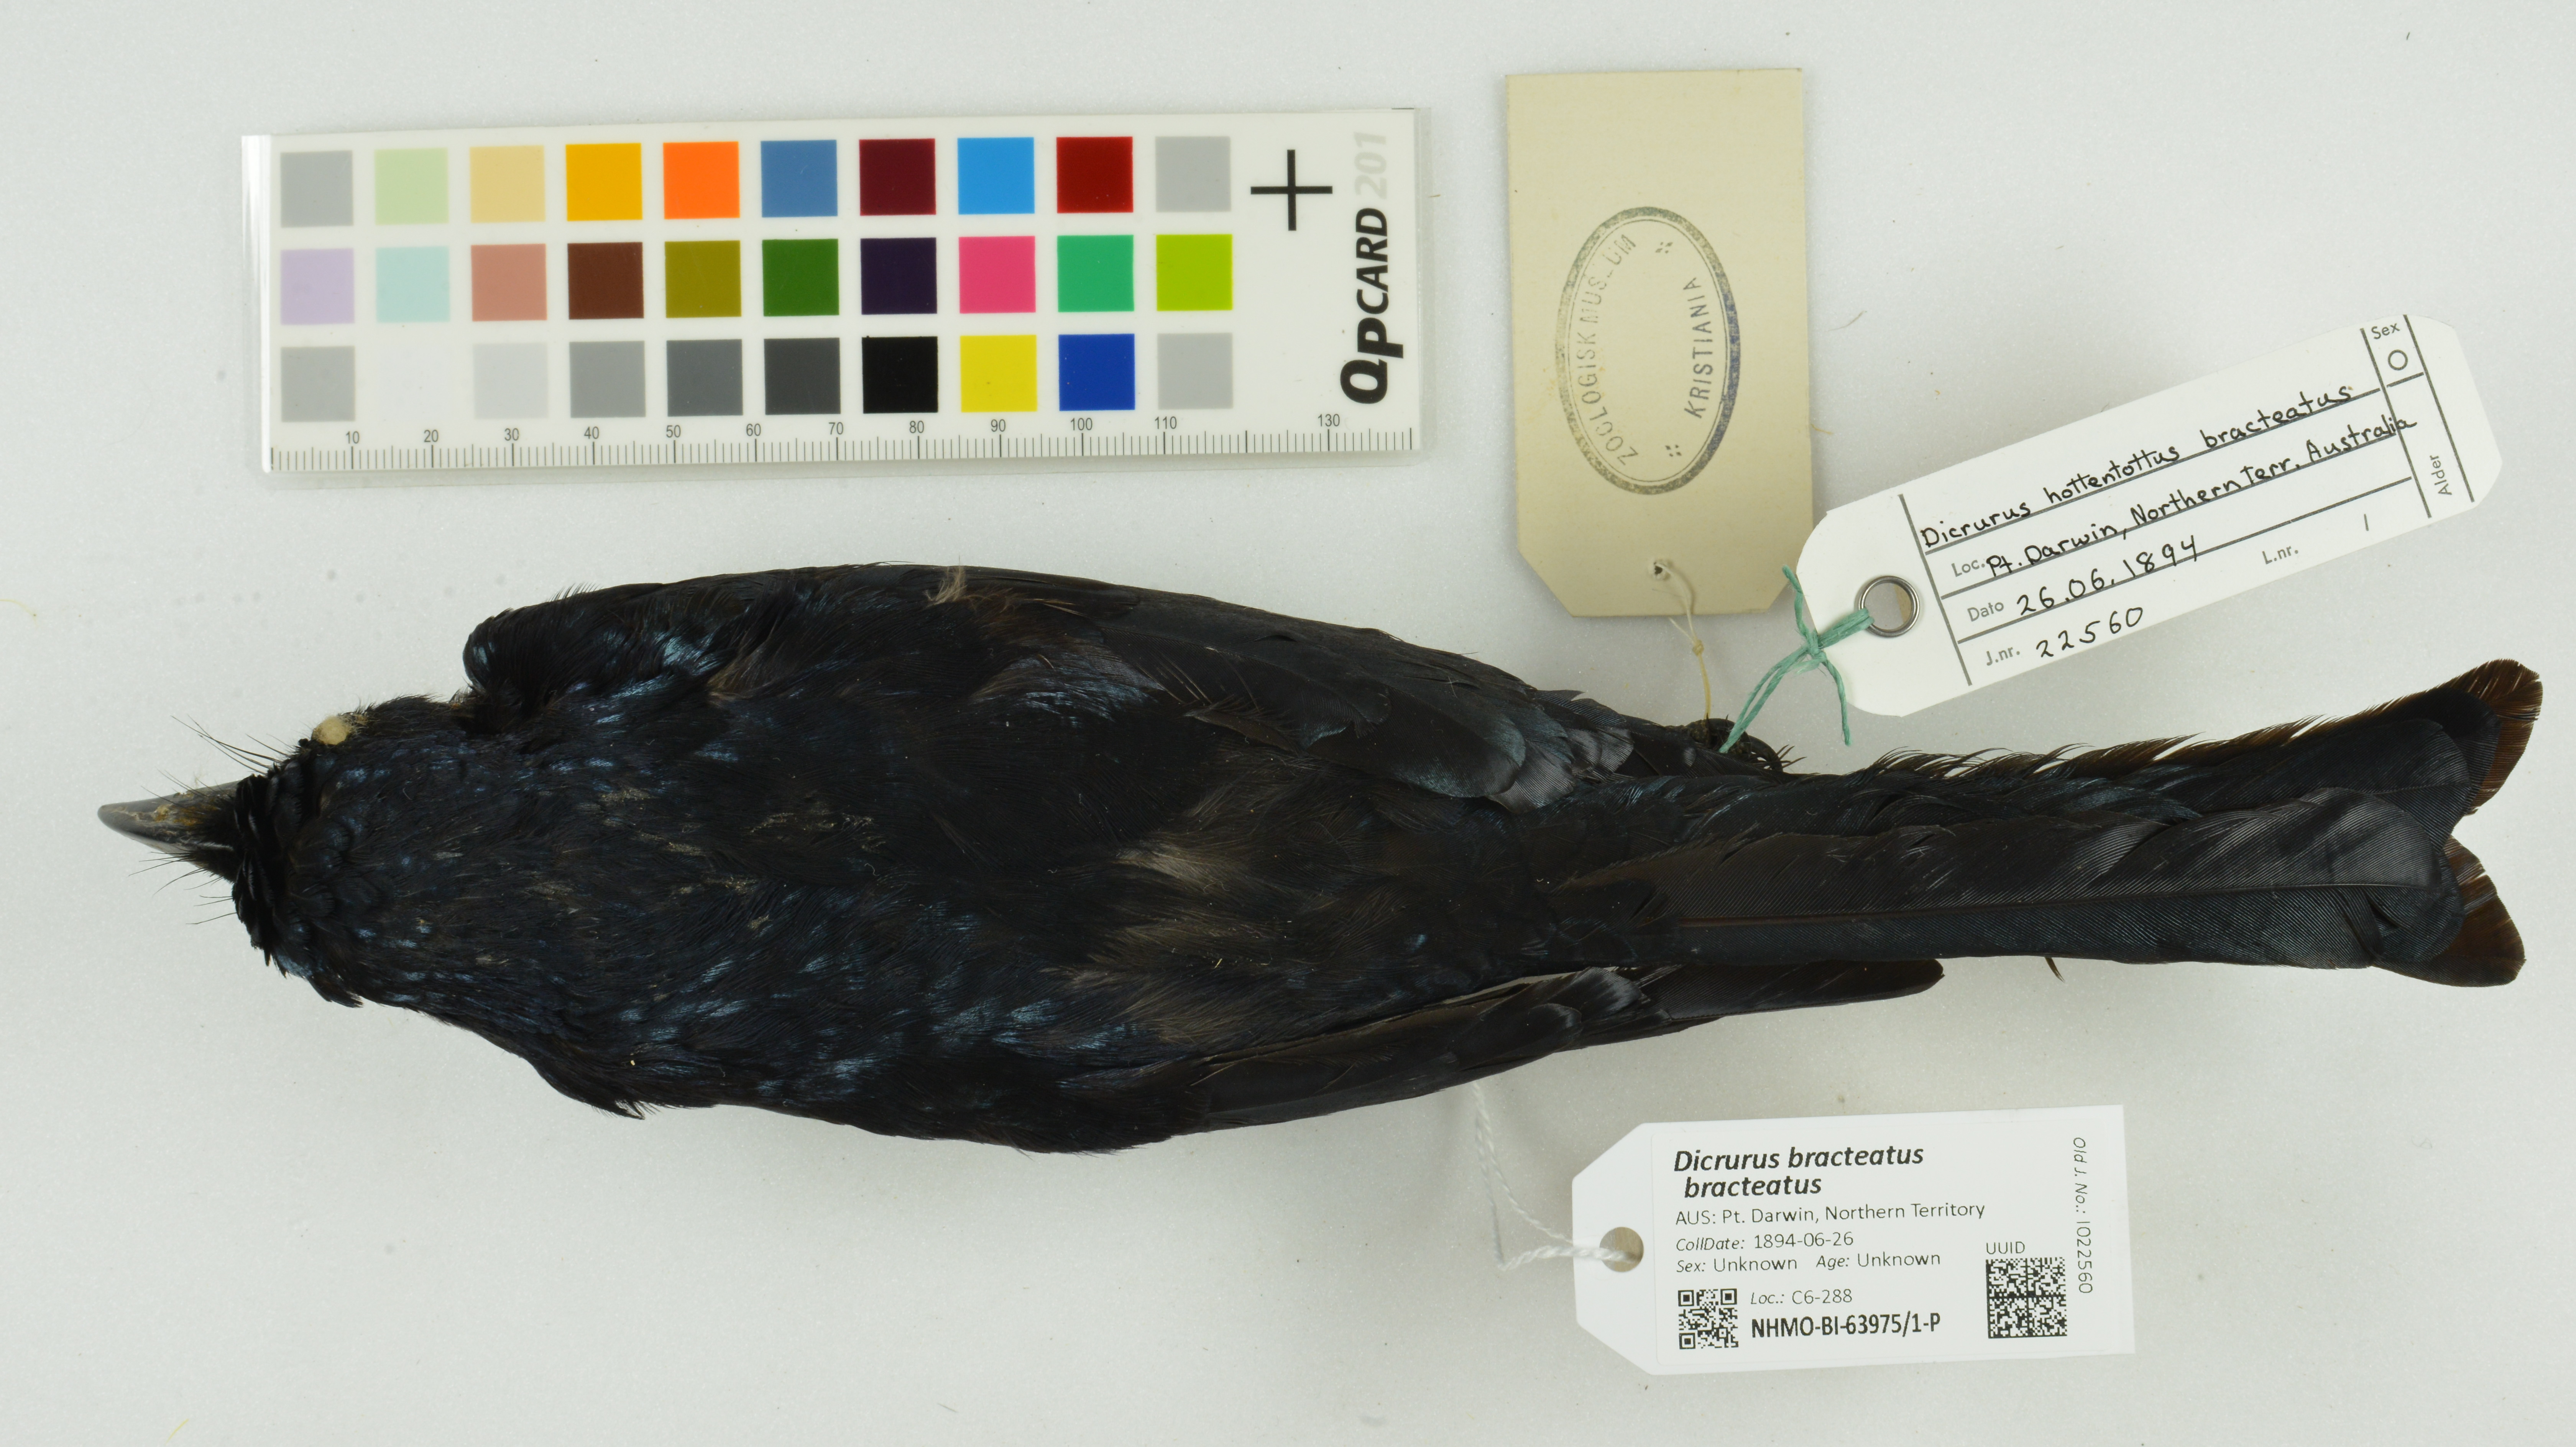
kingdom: Animalia
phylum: Chordata
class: Aves
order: Passeriformes
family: Dicruridae
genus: Dicrurus
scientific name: Dicrurus bracteatus
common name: Spangled drongo
